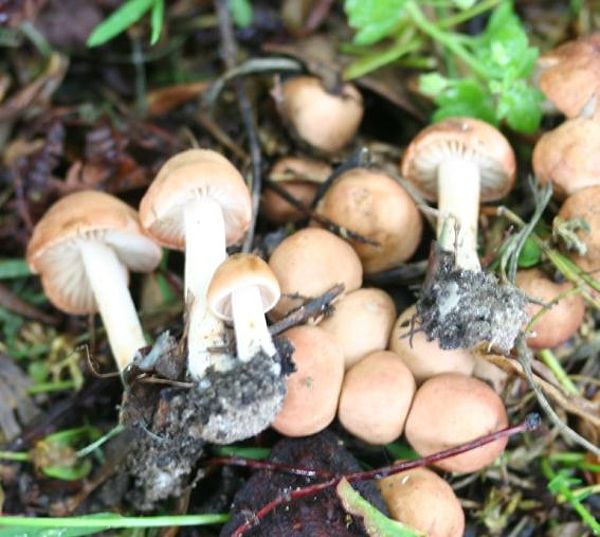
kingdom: Fungi
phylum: Basidiomycota
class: Agaricomycetes
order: Agaricales
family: Marasmiaceae
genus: Marasmius
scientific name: Marasmius oreades
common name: elledans-bruskhat
